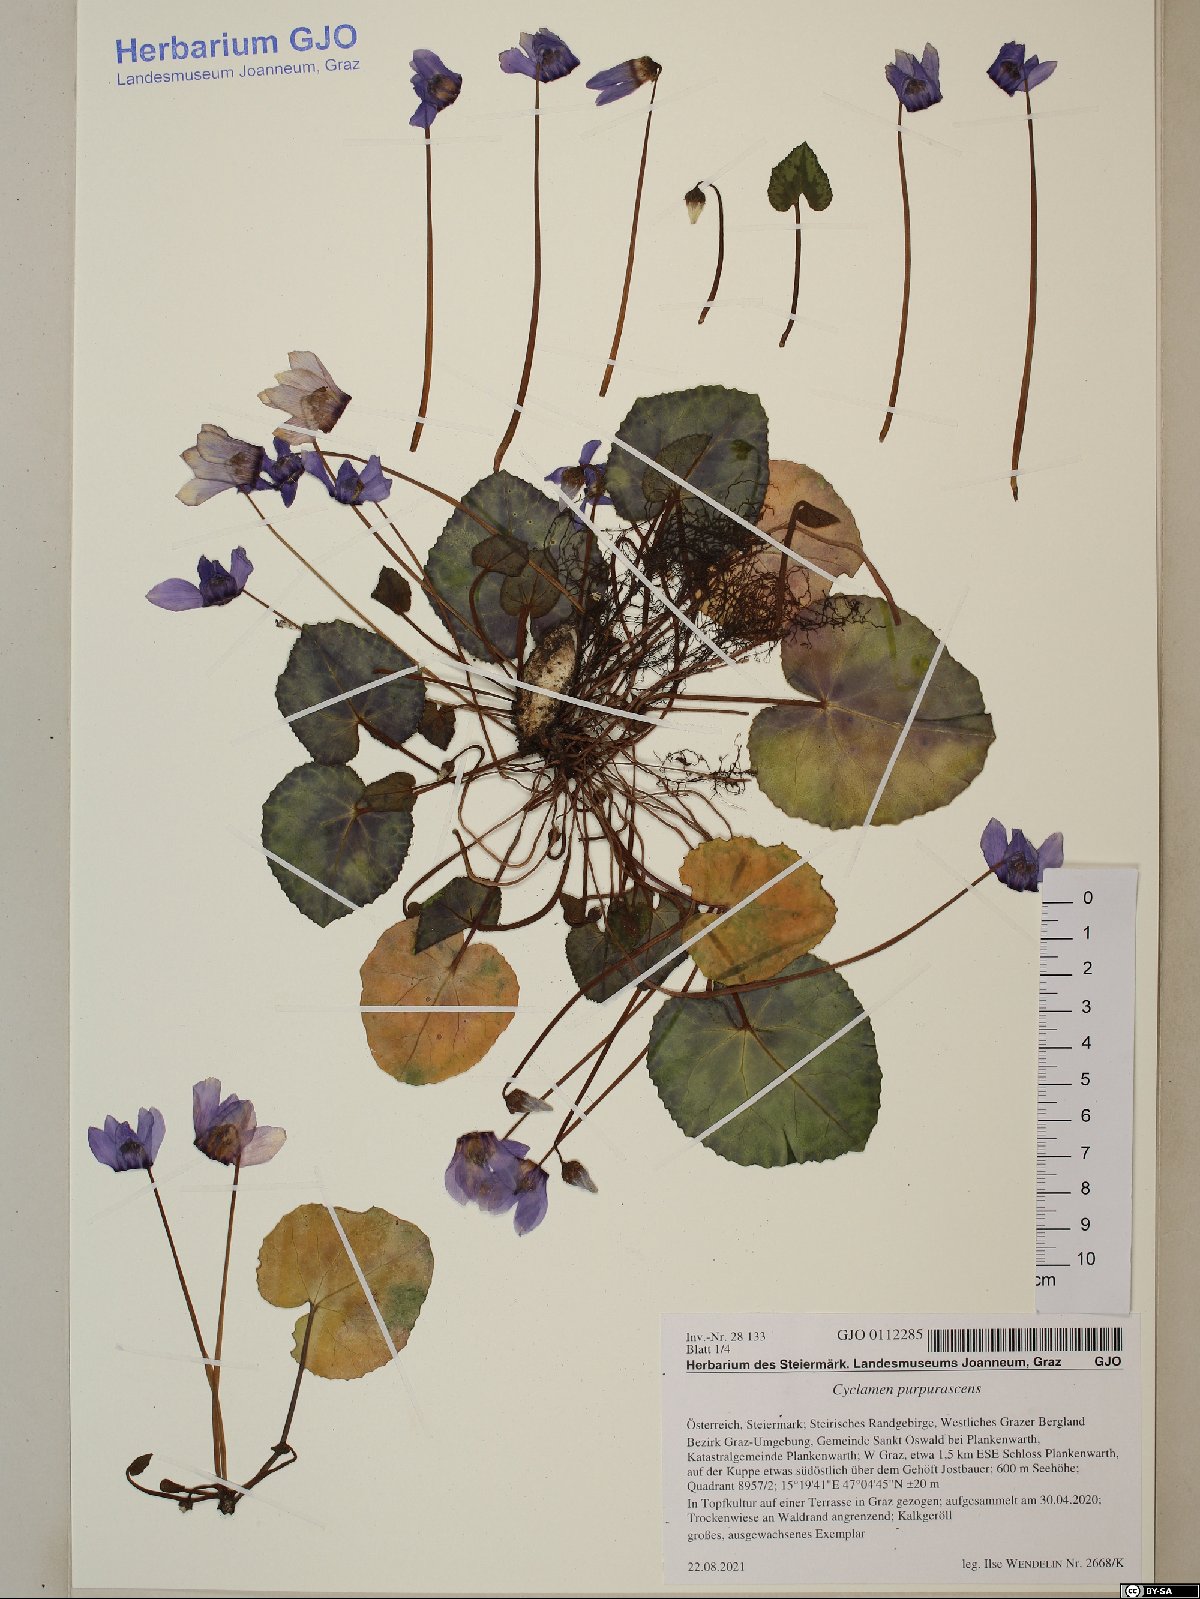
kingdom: Plantae
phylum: Tracheophyta
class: Magnoliopsida
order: Ericales
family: Primulaceae
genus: Cyclamen
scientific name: Cyclamen purpurascens
